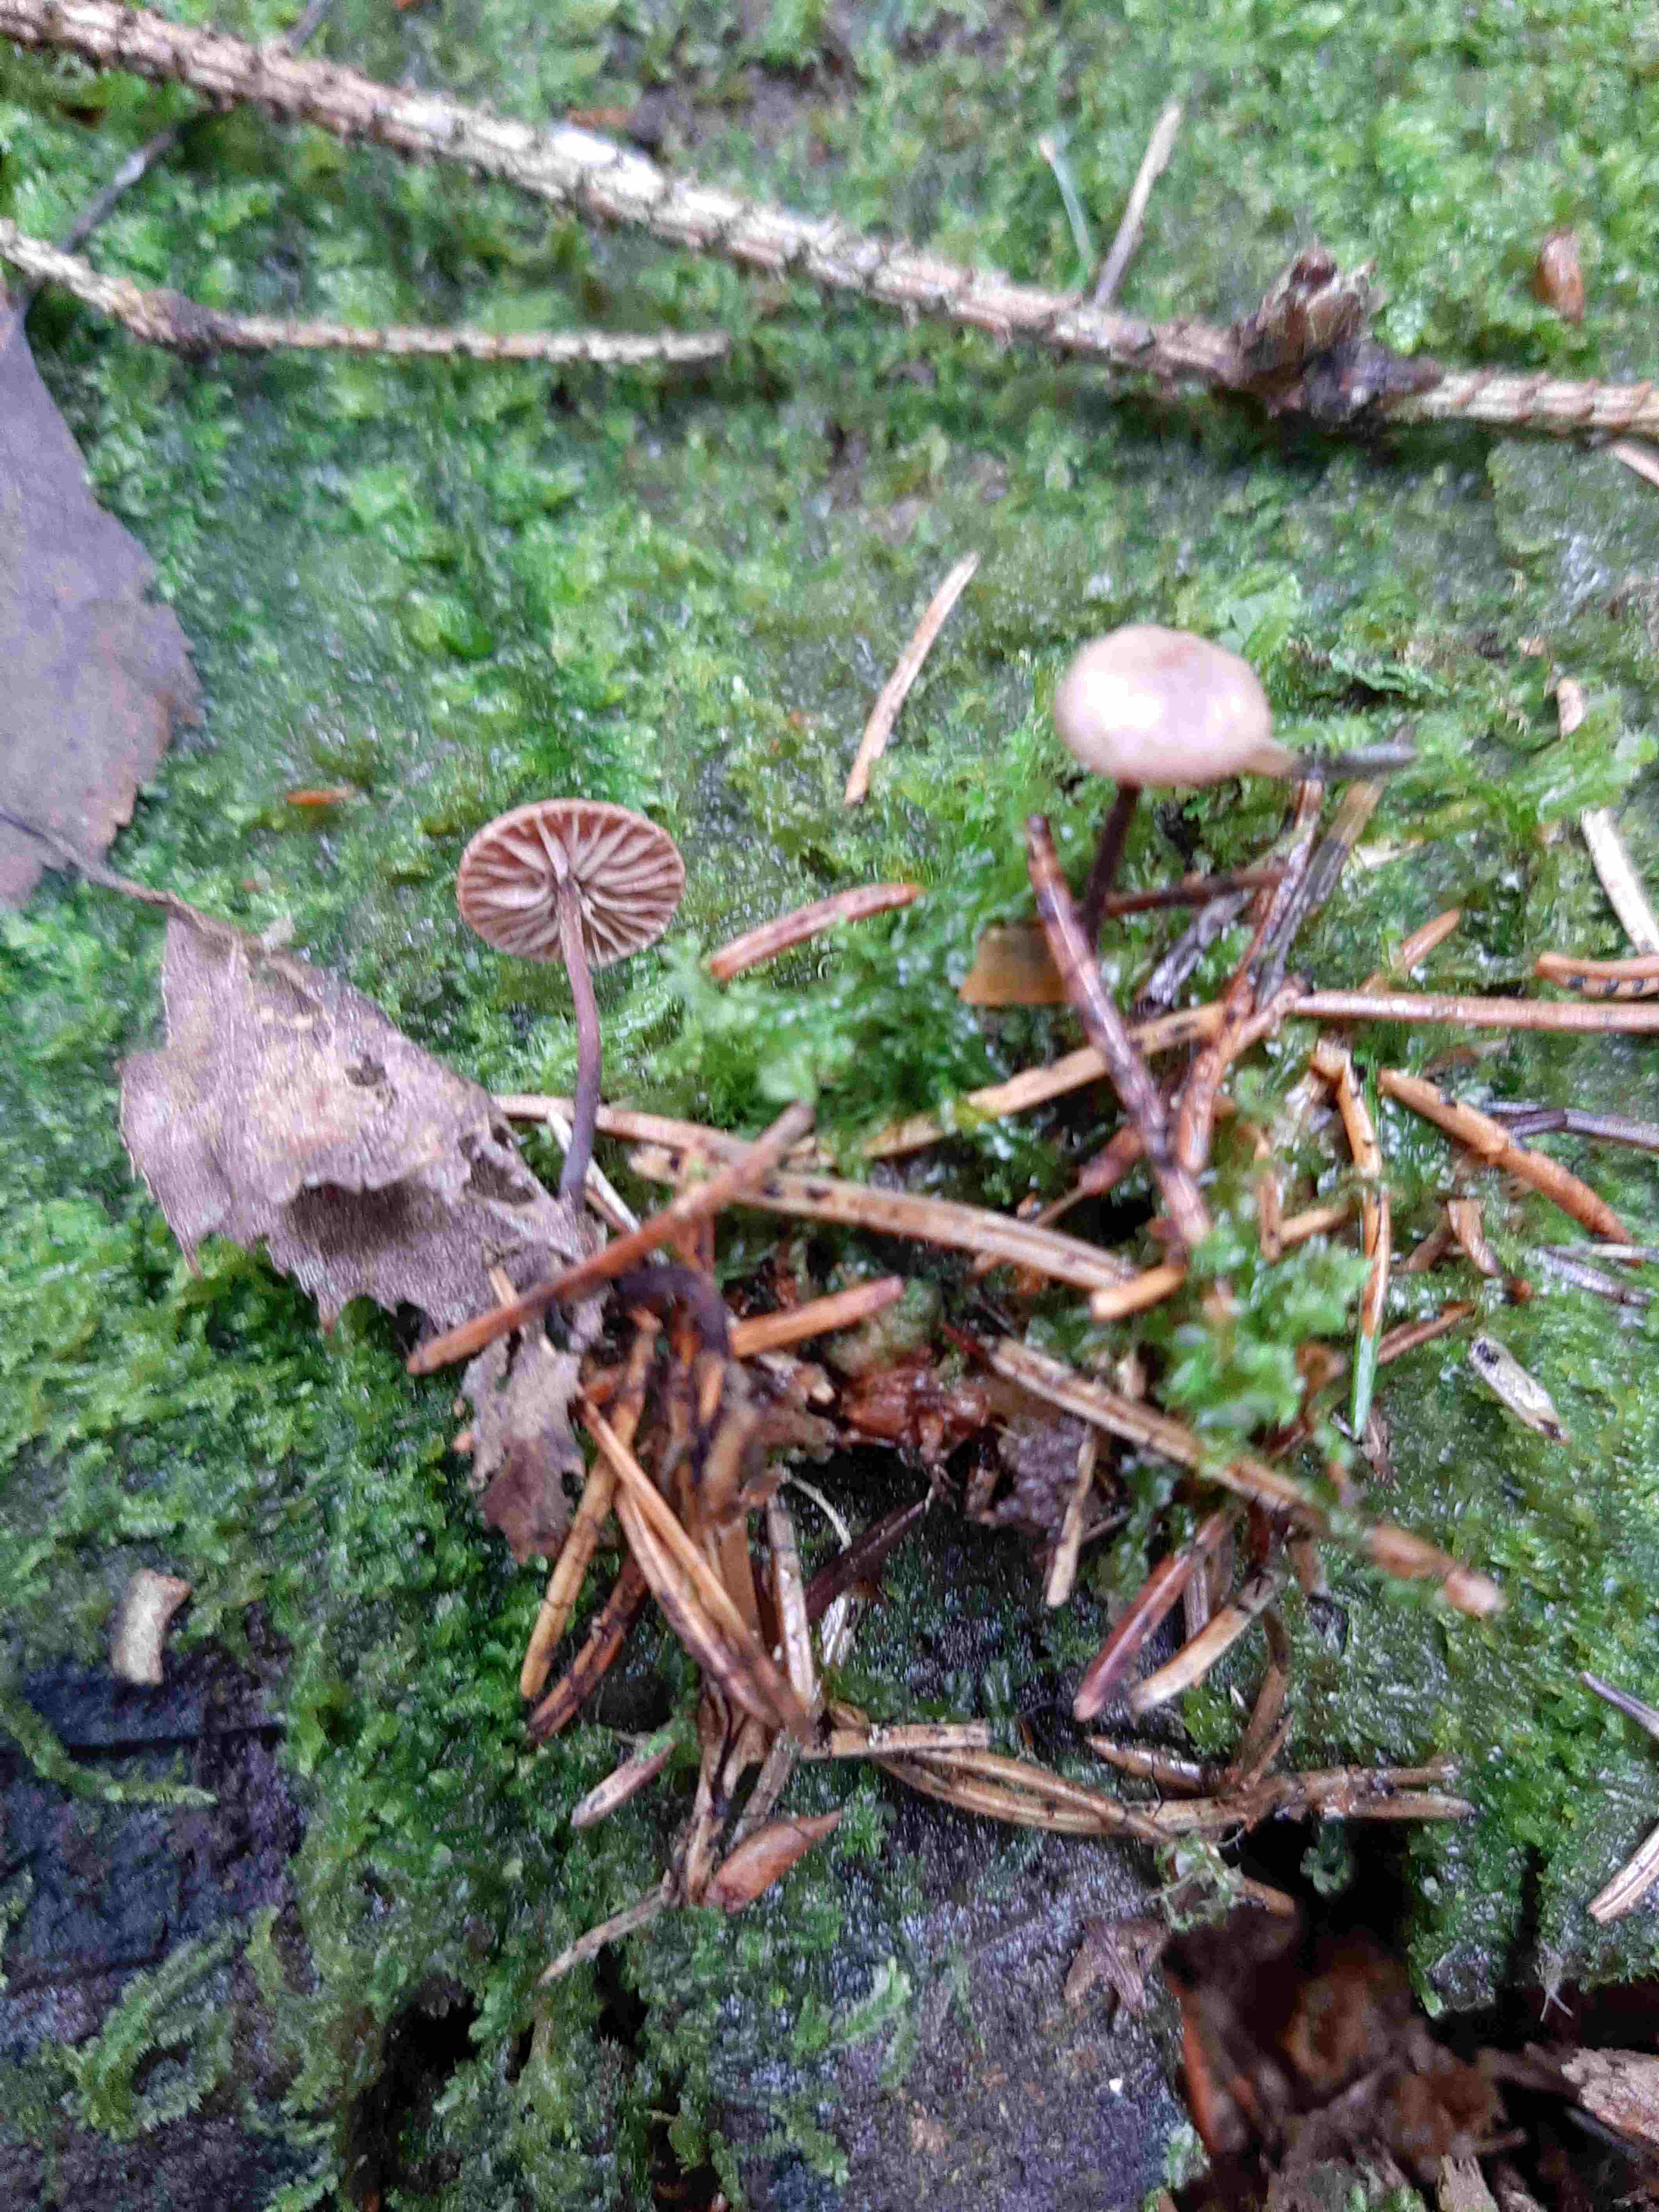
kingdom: Fungi
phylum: Basidiomycota
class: Agaricomycetes
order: Agaricales
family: Omphalotaceae
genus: Paragymnopus
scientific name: Paragymnopus perforans
